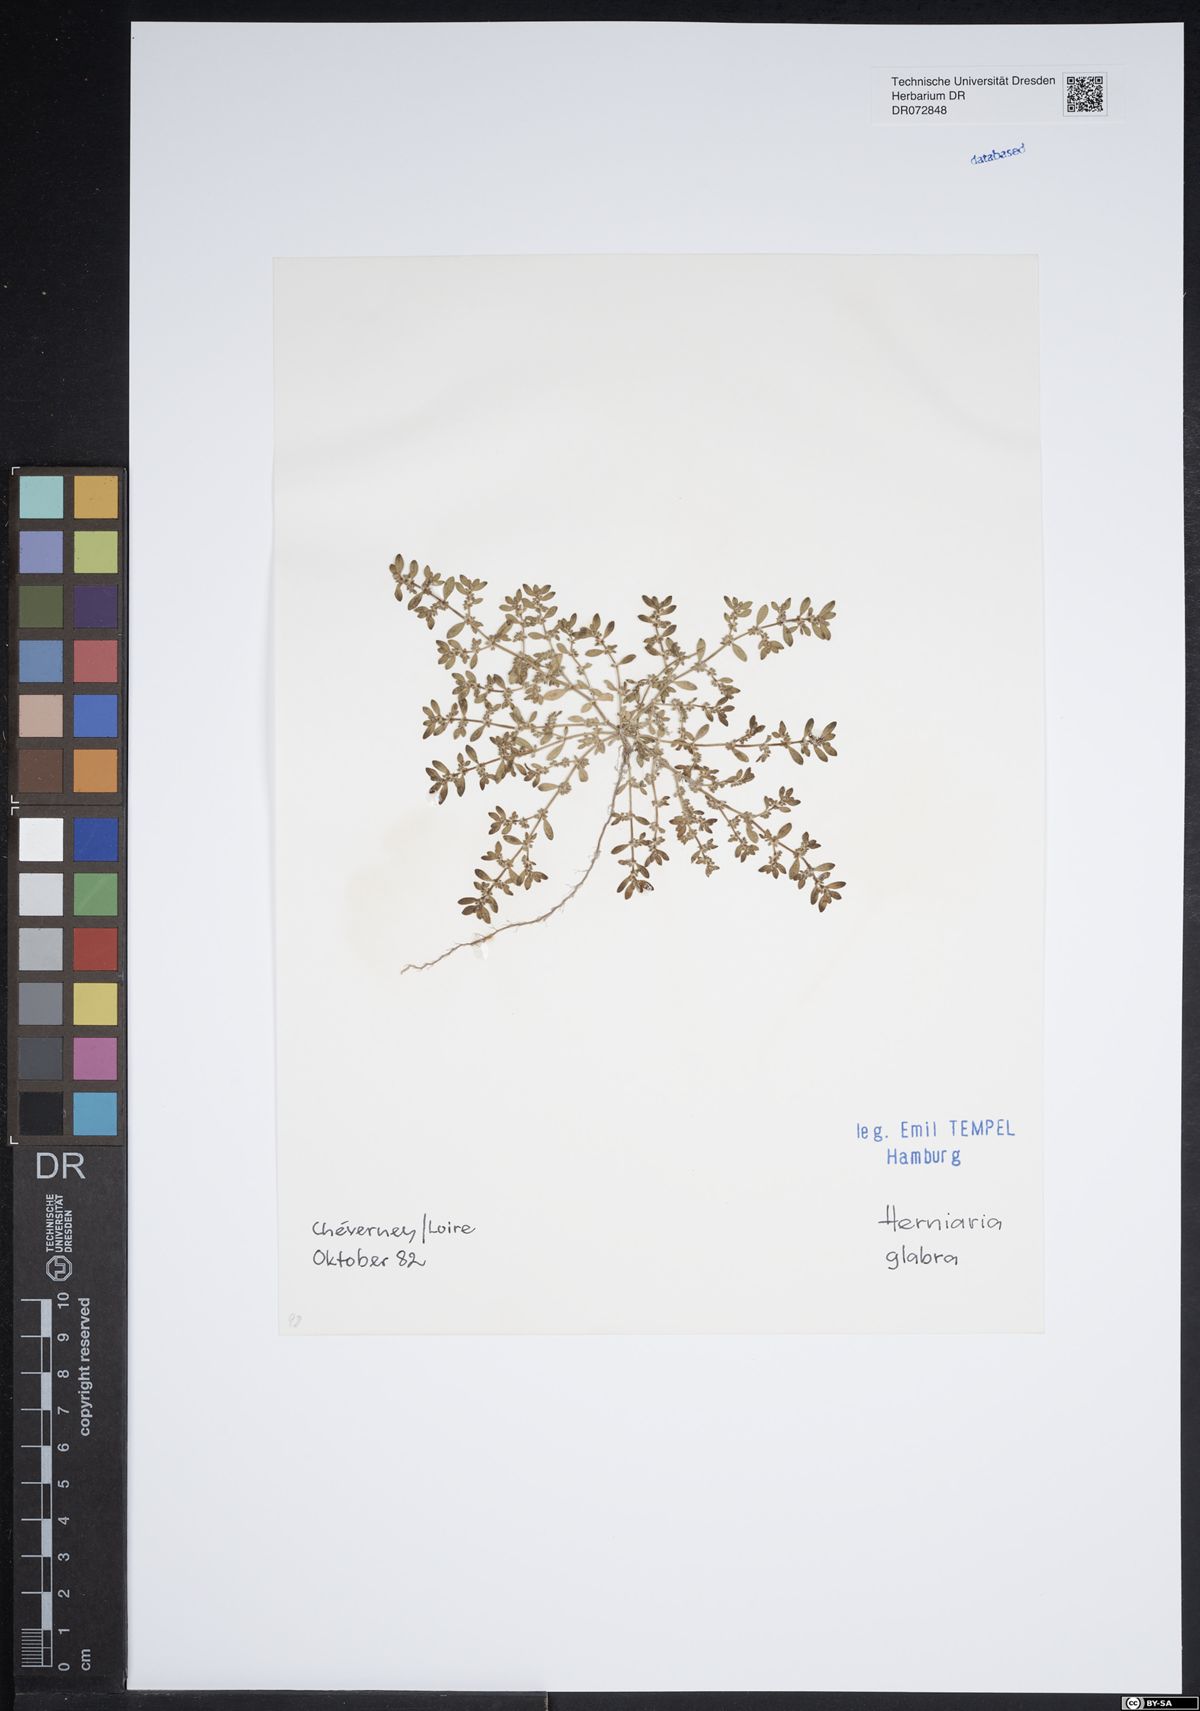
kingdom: Plantae
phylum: Tracheophyta
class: Magnoliopsida
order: Caryophyllales
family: Caryophyllaceae
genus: Herniaria
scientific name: Herniaria glabra
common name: Smooth rupturewort
